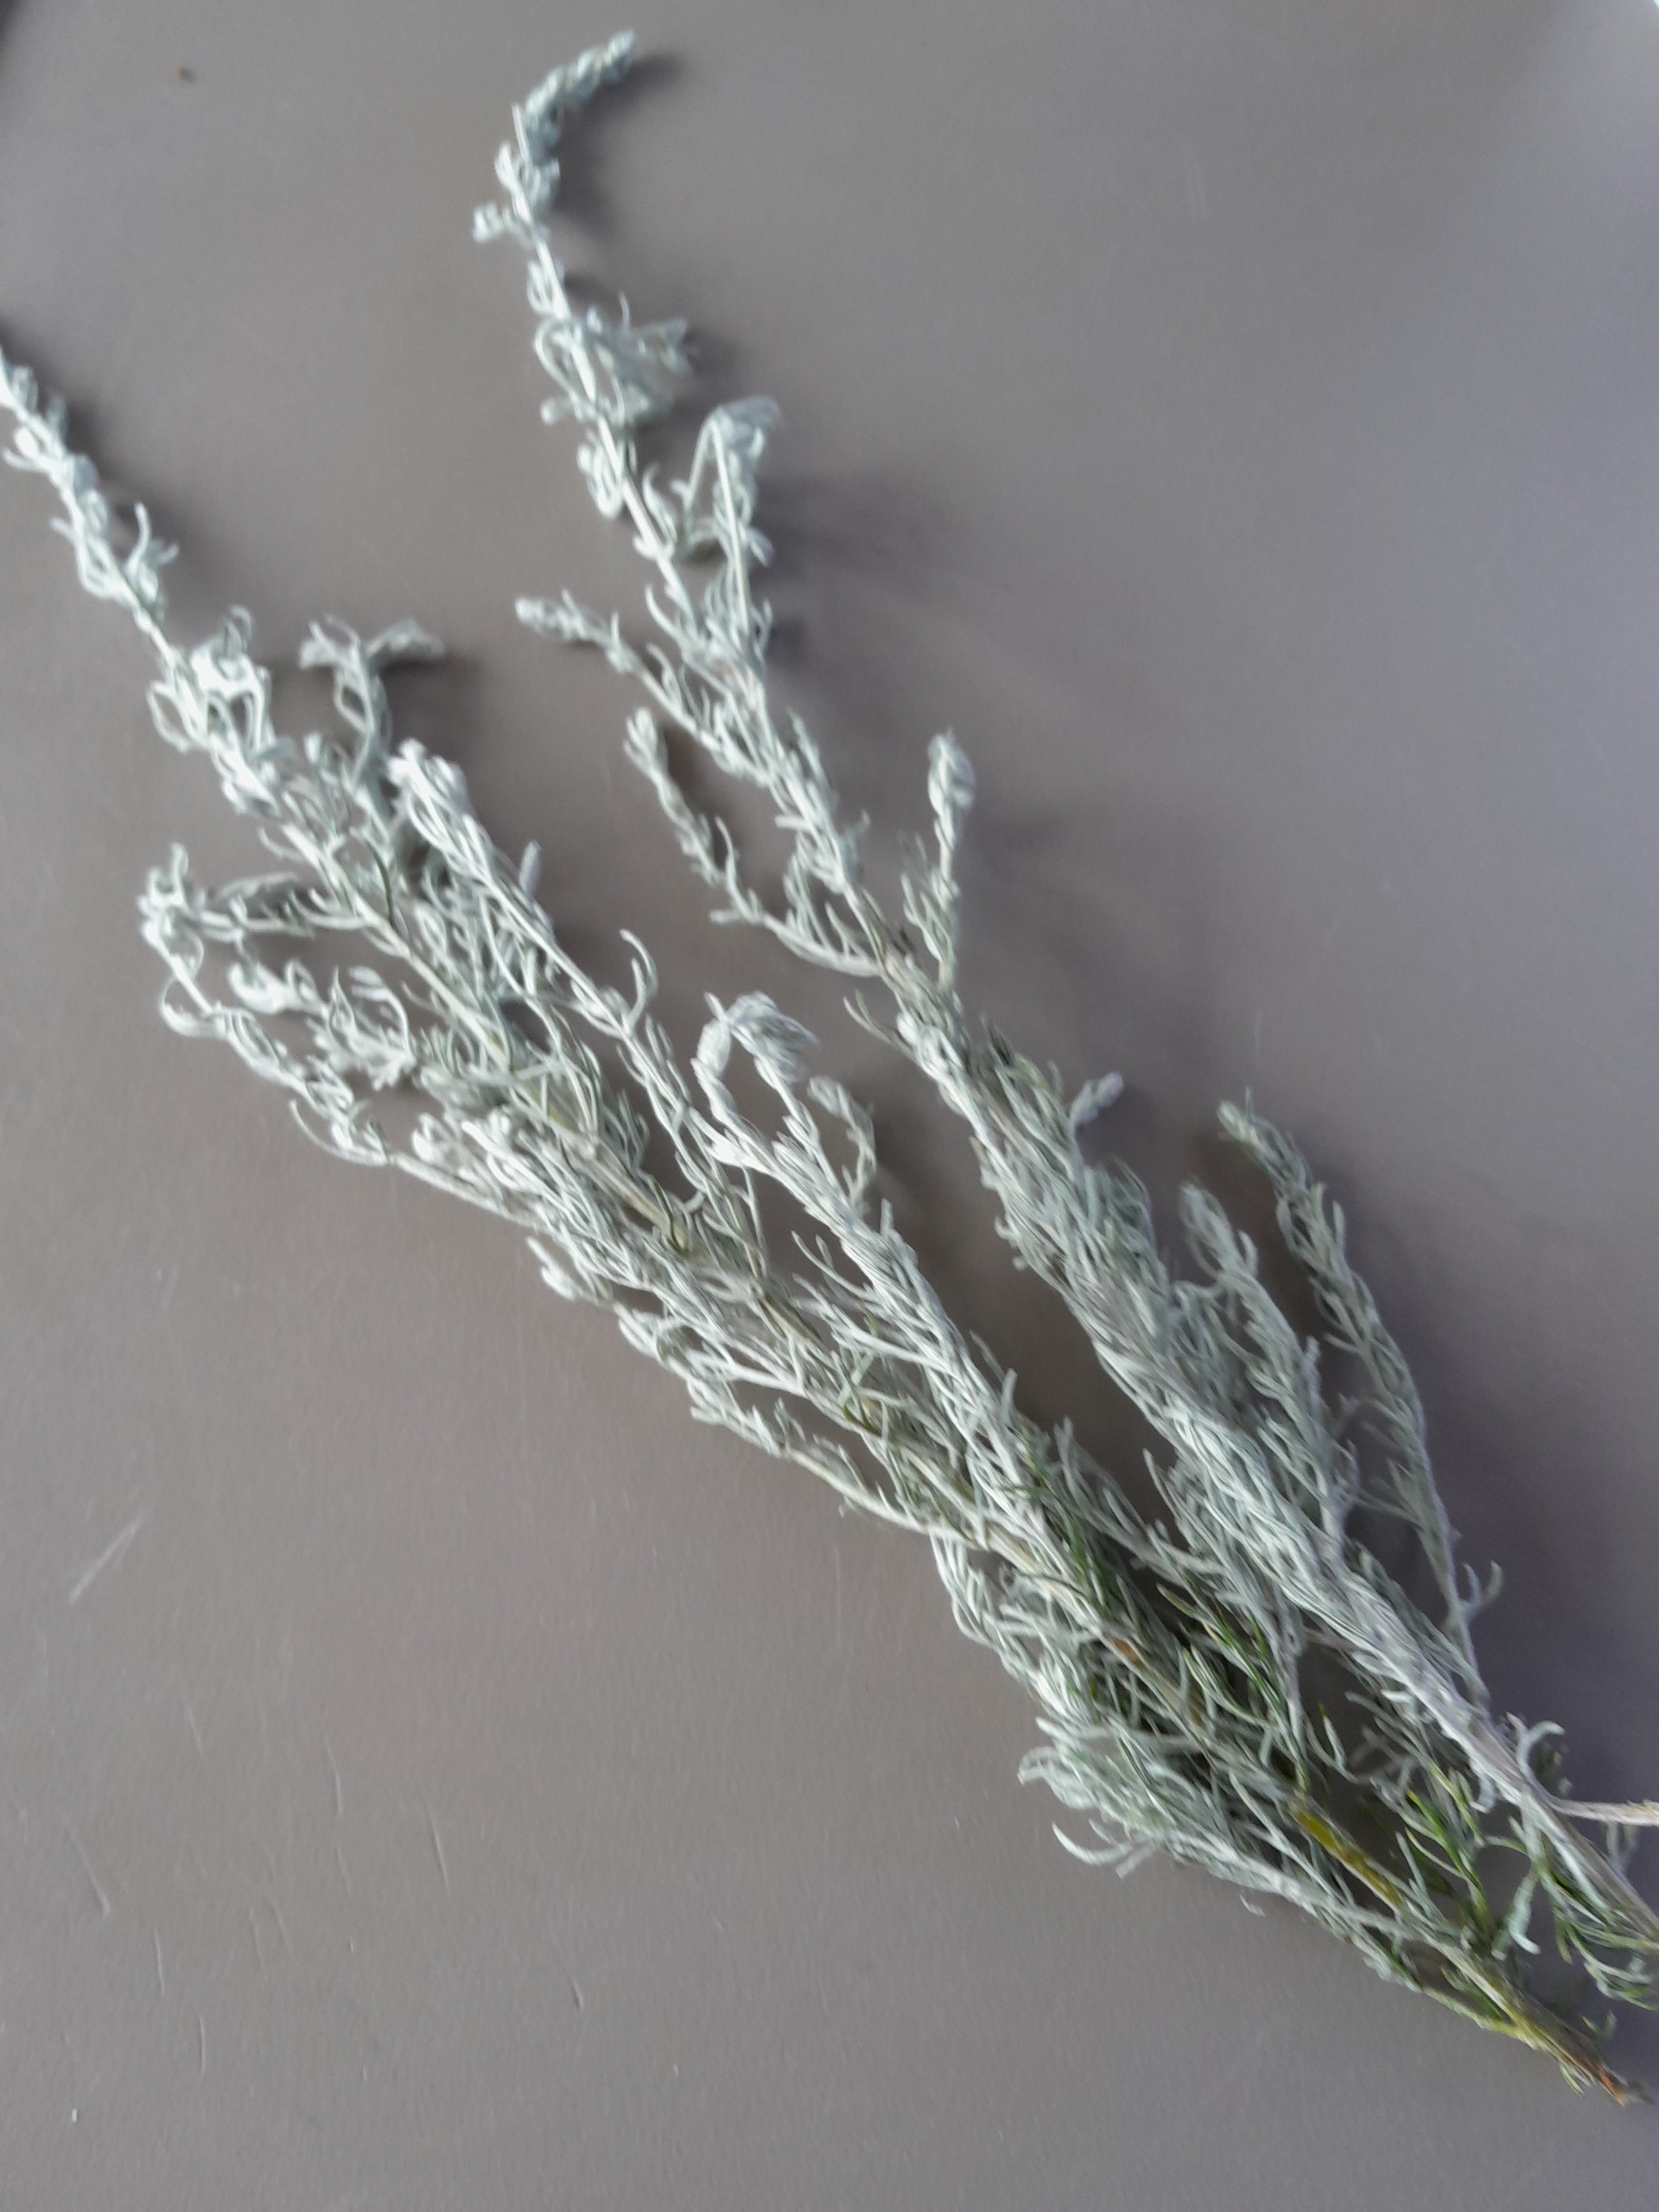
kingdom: Plantae
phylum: Tracheophyta
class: Magnoliopsida
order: Asterales
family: Asteraceae
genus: Artemisia
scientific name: Artemisia maritima
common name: Strandmalurt
